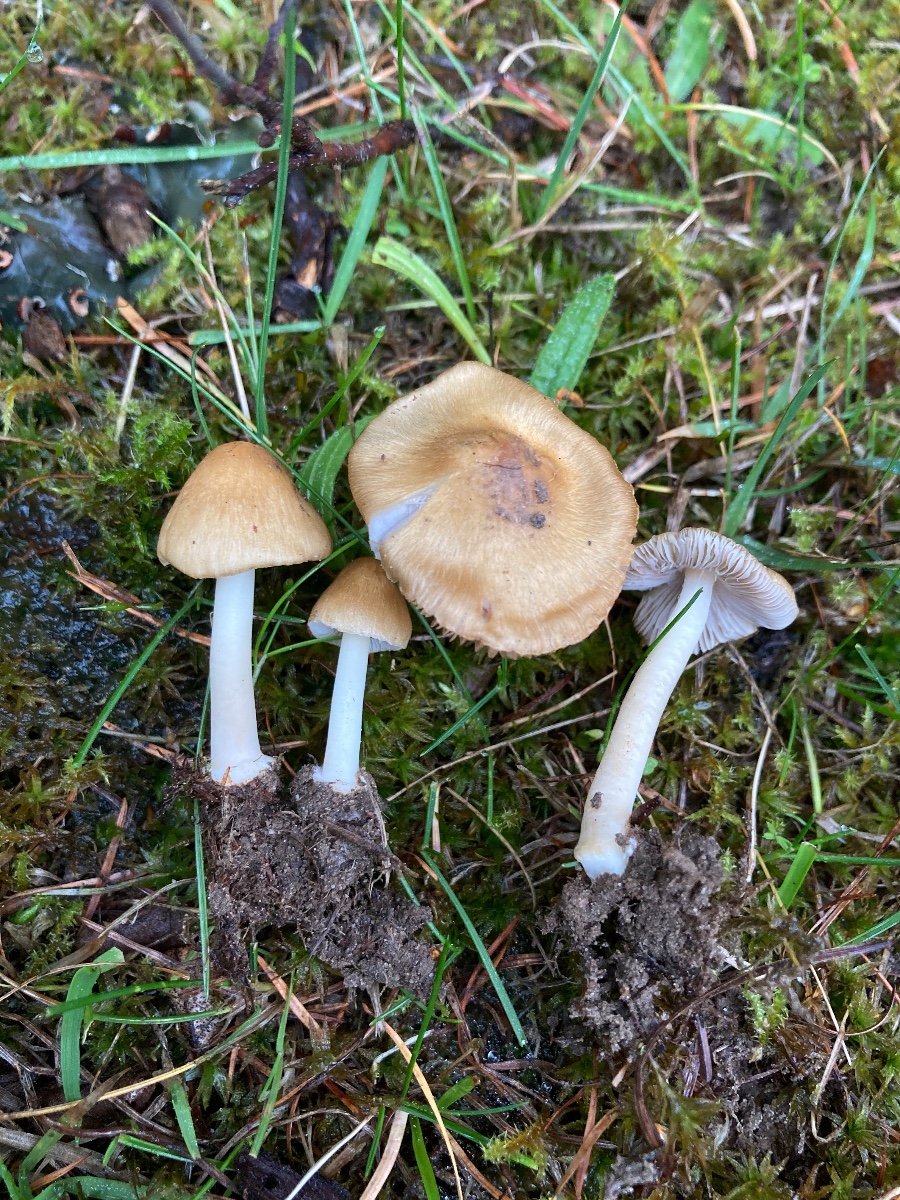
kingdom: Fungi
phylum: Basidiomycota
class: Agaricomycetes
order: Agaricales
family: Inocybaceae
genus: Inocybe
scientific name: Inocybe mixtilis
